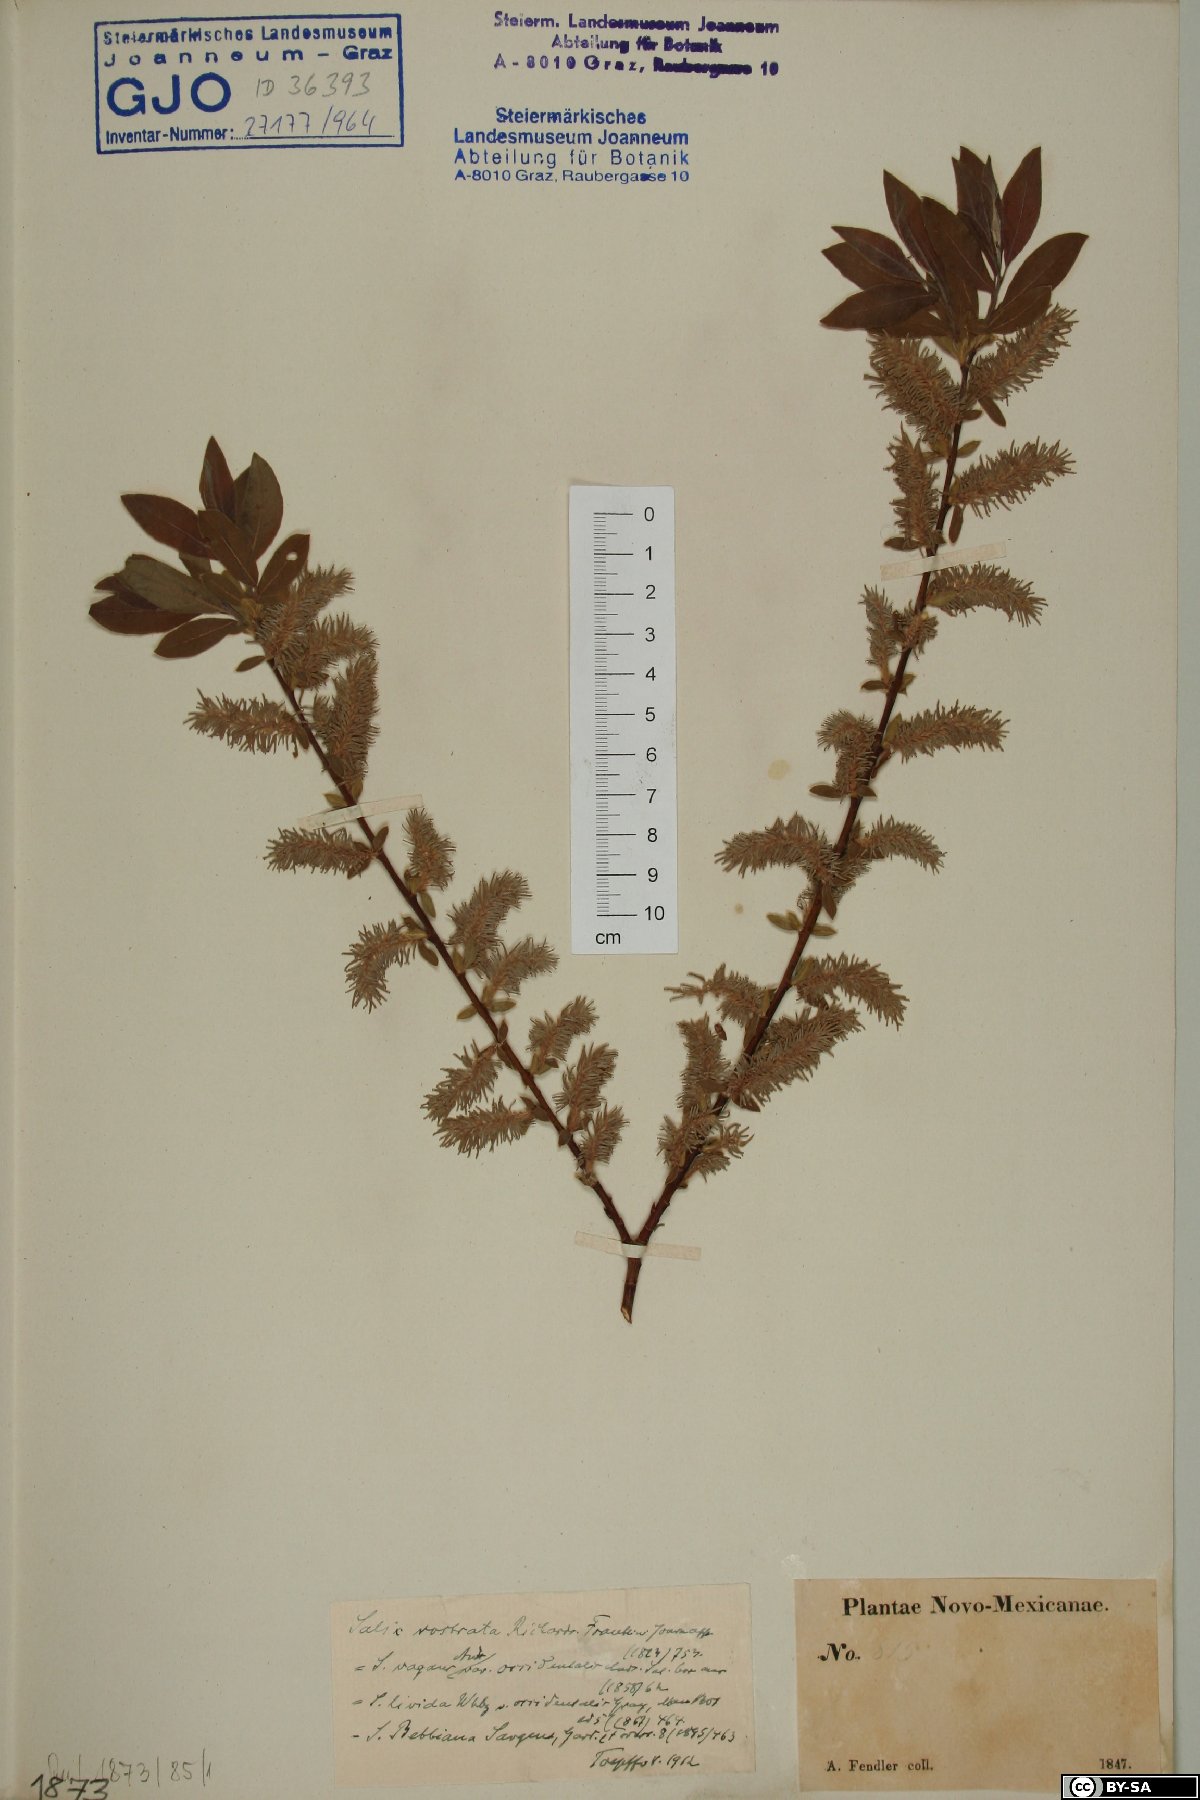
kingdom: Plantae
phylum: Tracheophyta
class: Magnoliopsida
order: Malpighiales
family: Salicaceae
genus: Salix
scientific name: Salix bebbiana
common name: Bebb's willow
